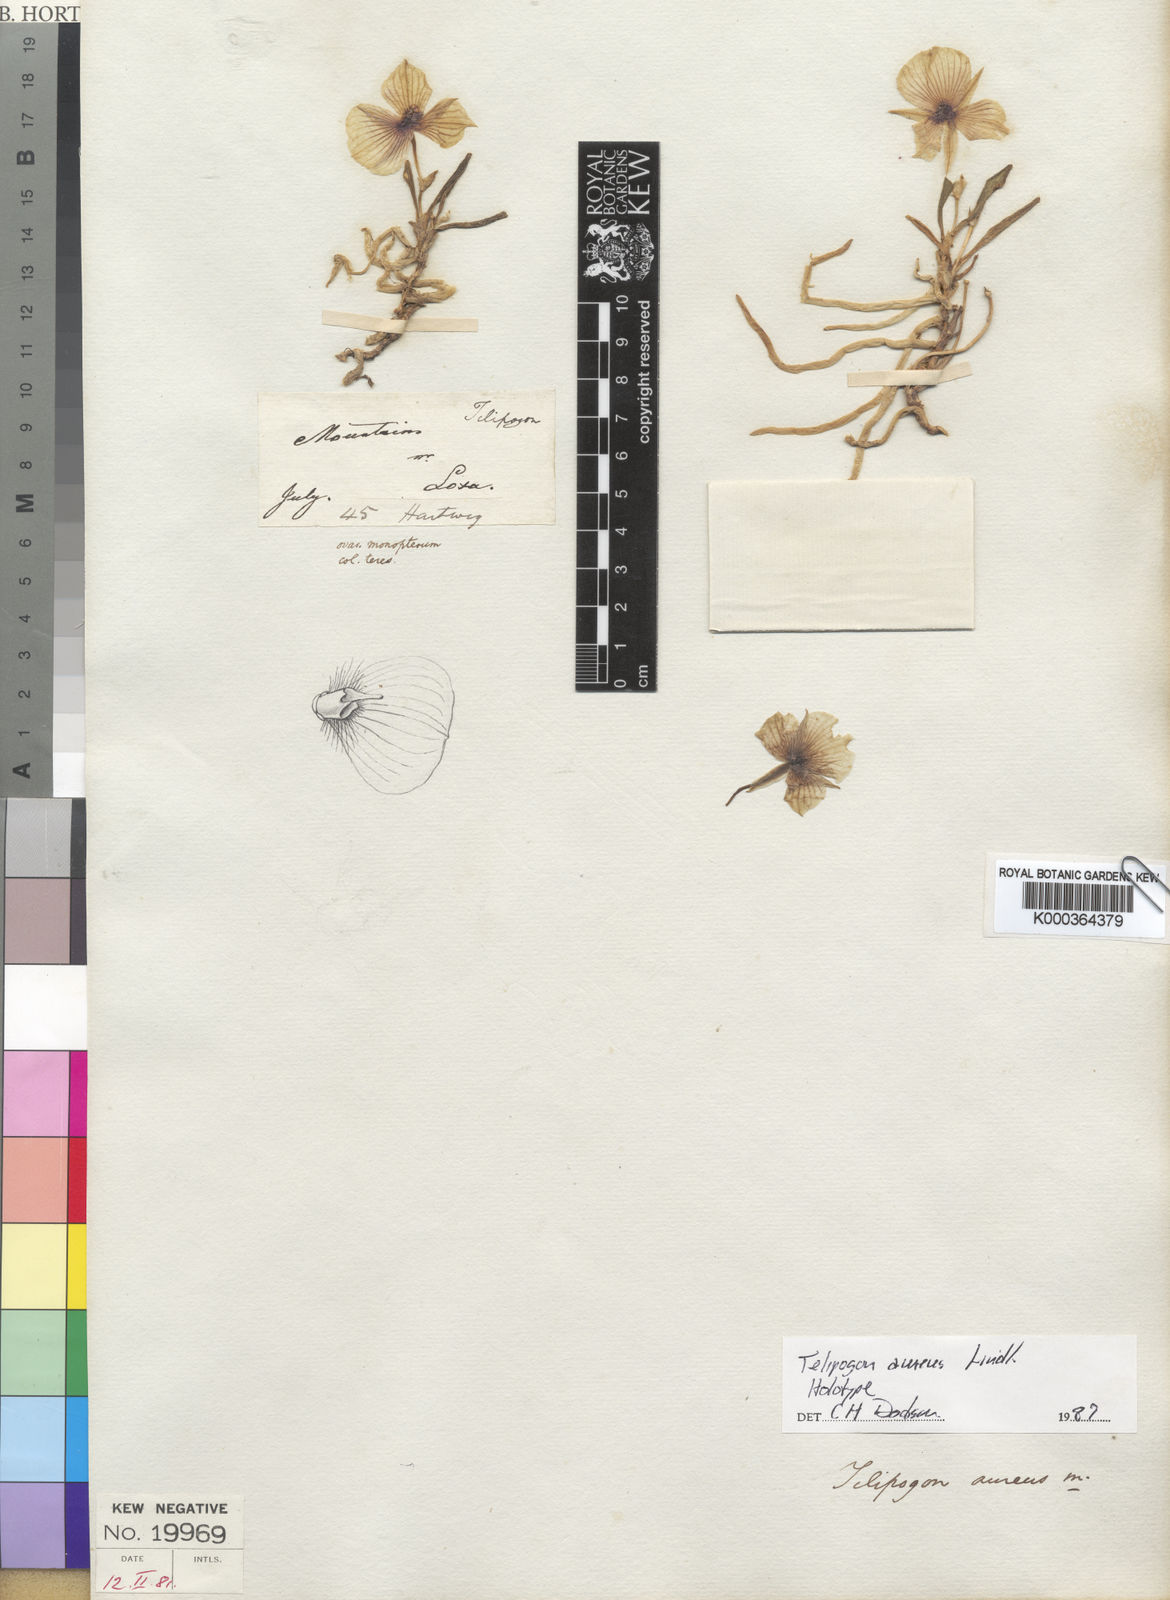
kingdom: Plantae
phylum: Tracheophyta
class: Liliopsida
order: Asparagales
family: Orchidaceae
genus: Telipogon
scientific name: Telipogon aureus
